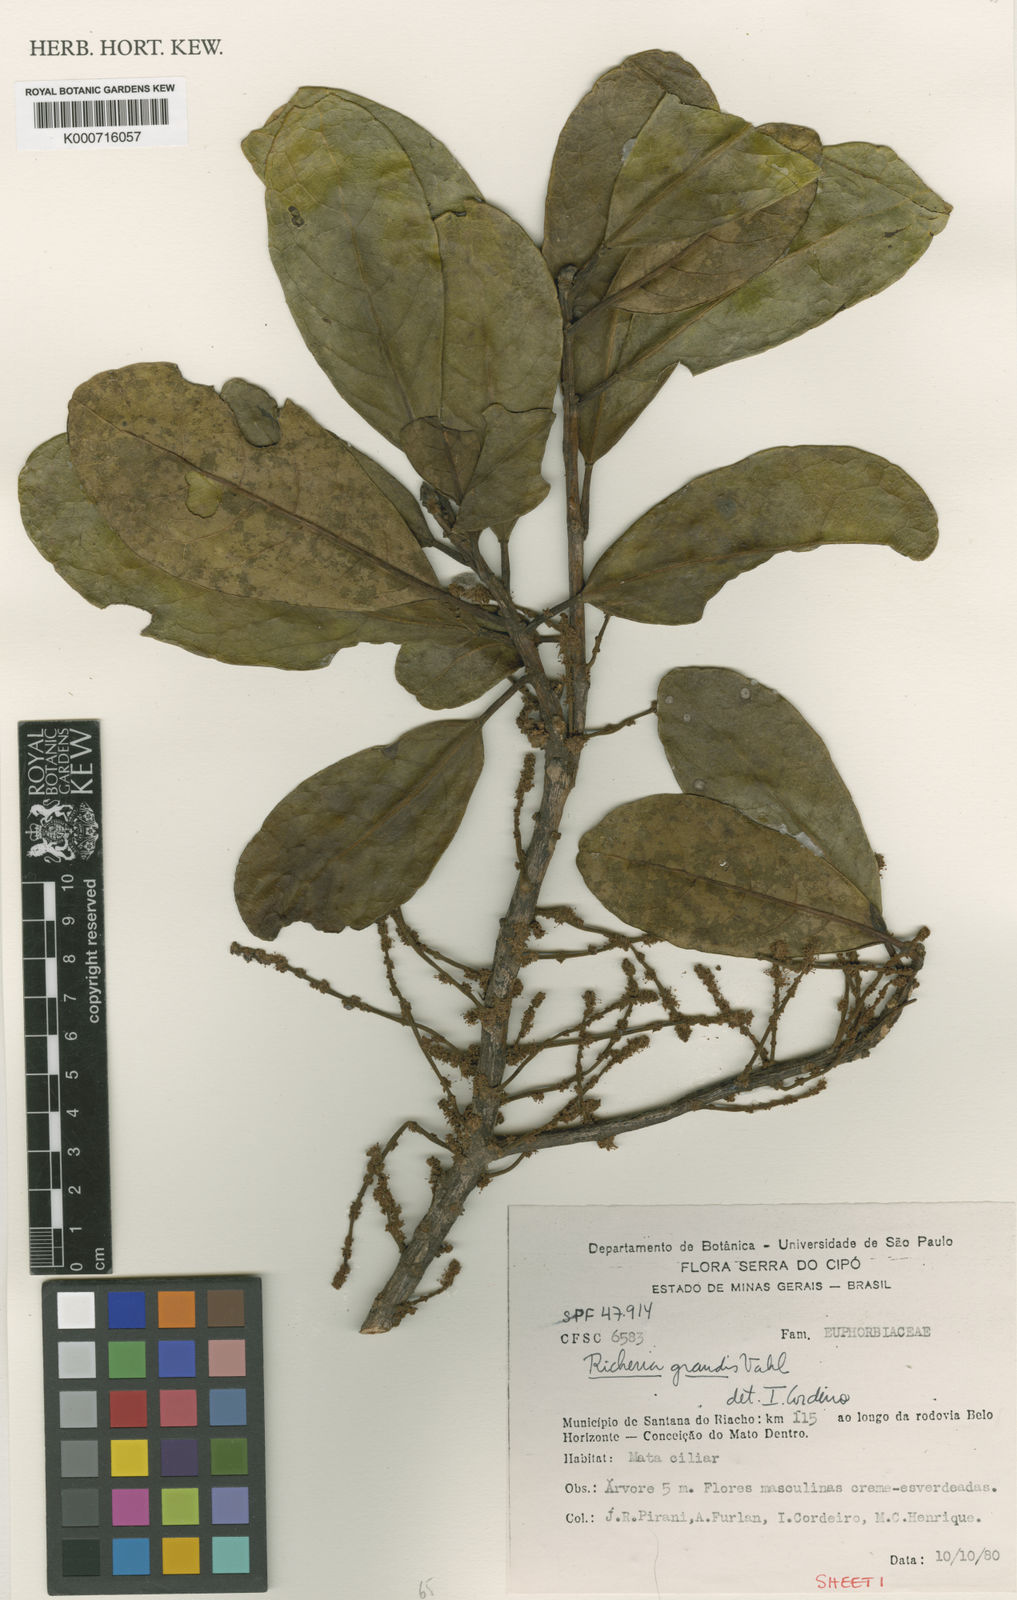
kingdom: Plantae
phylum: Tracheophyta
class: Magnoliopsida
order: Malpighiales
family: Phyllanthaceae
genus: Richeria
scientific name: Richeria grandis
